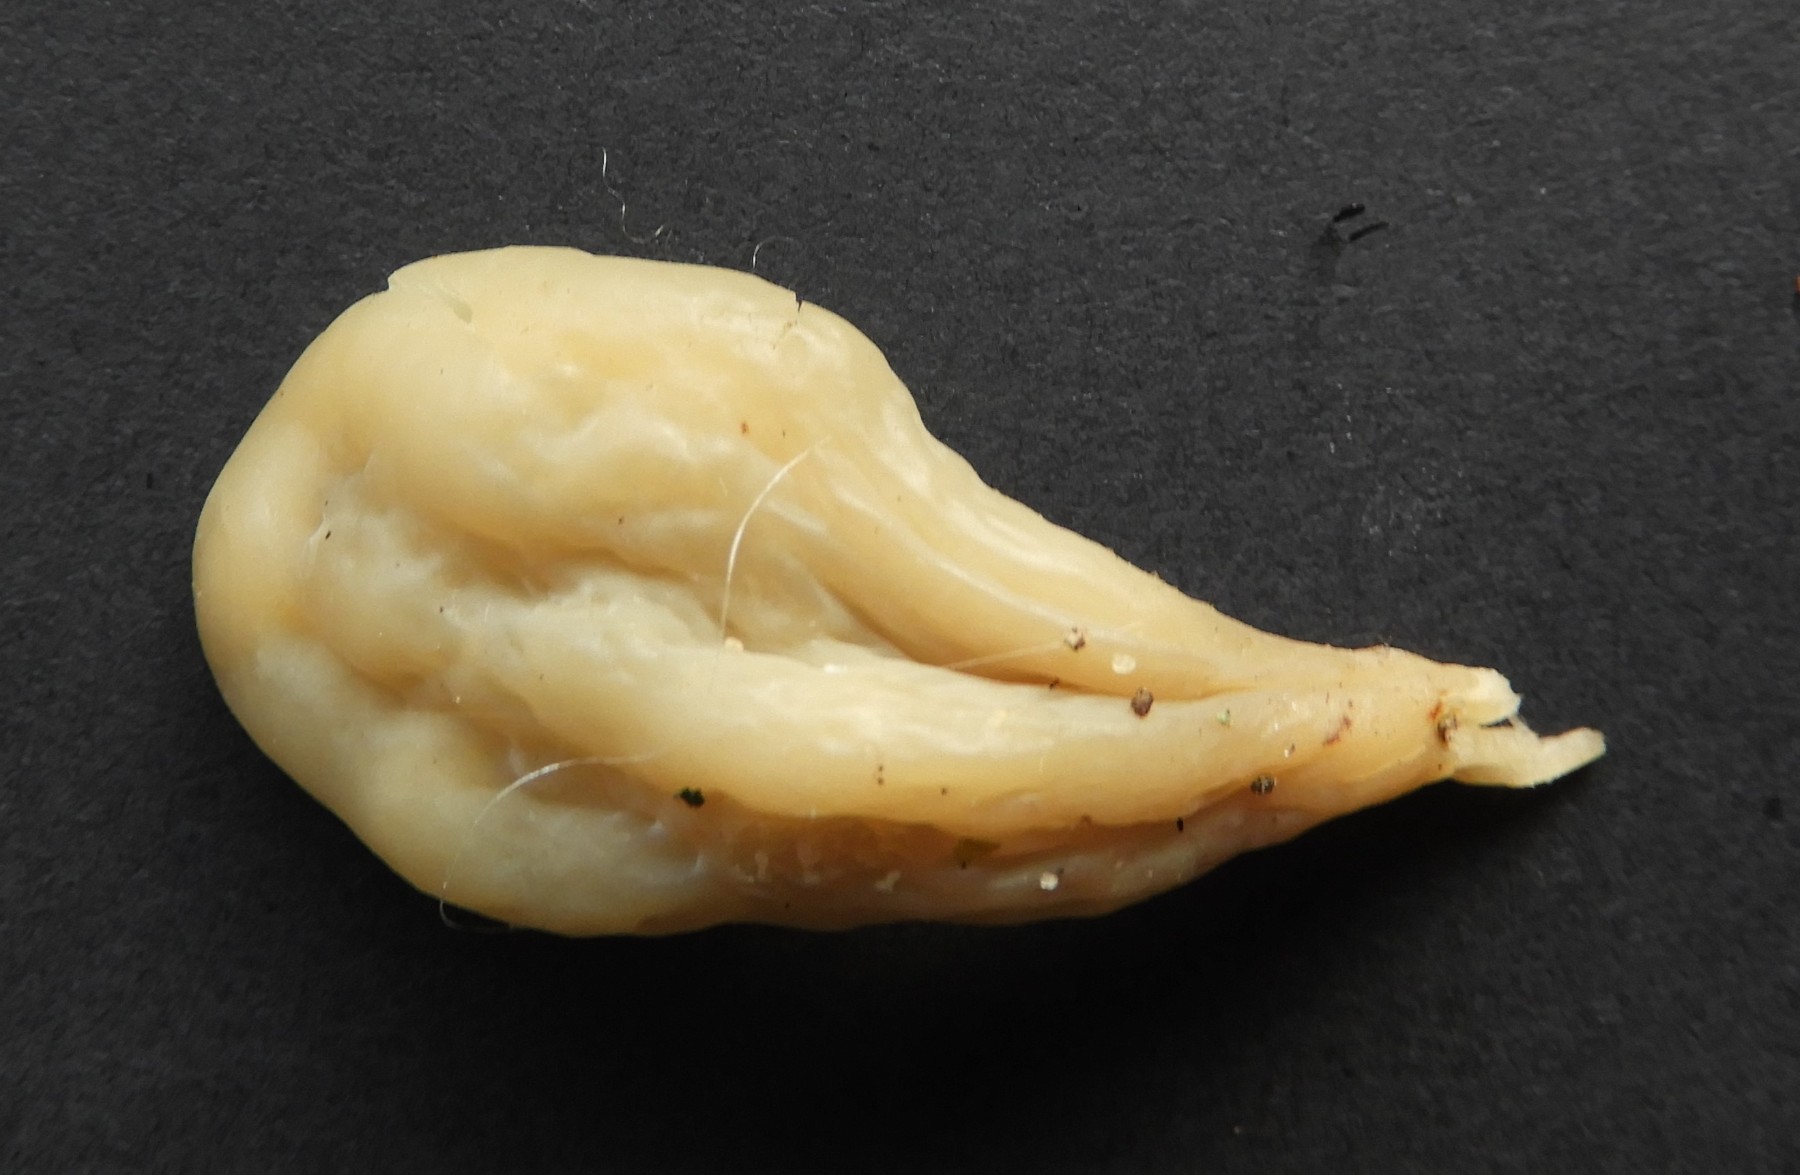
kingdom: Fungi
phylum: Basidiomycota
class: Agaricomycetes
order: Agaricales
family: Clavariaceae
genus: Clavaria
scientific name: Clavaria tenuipes
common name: isabellafarvet køllesvamp
